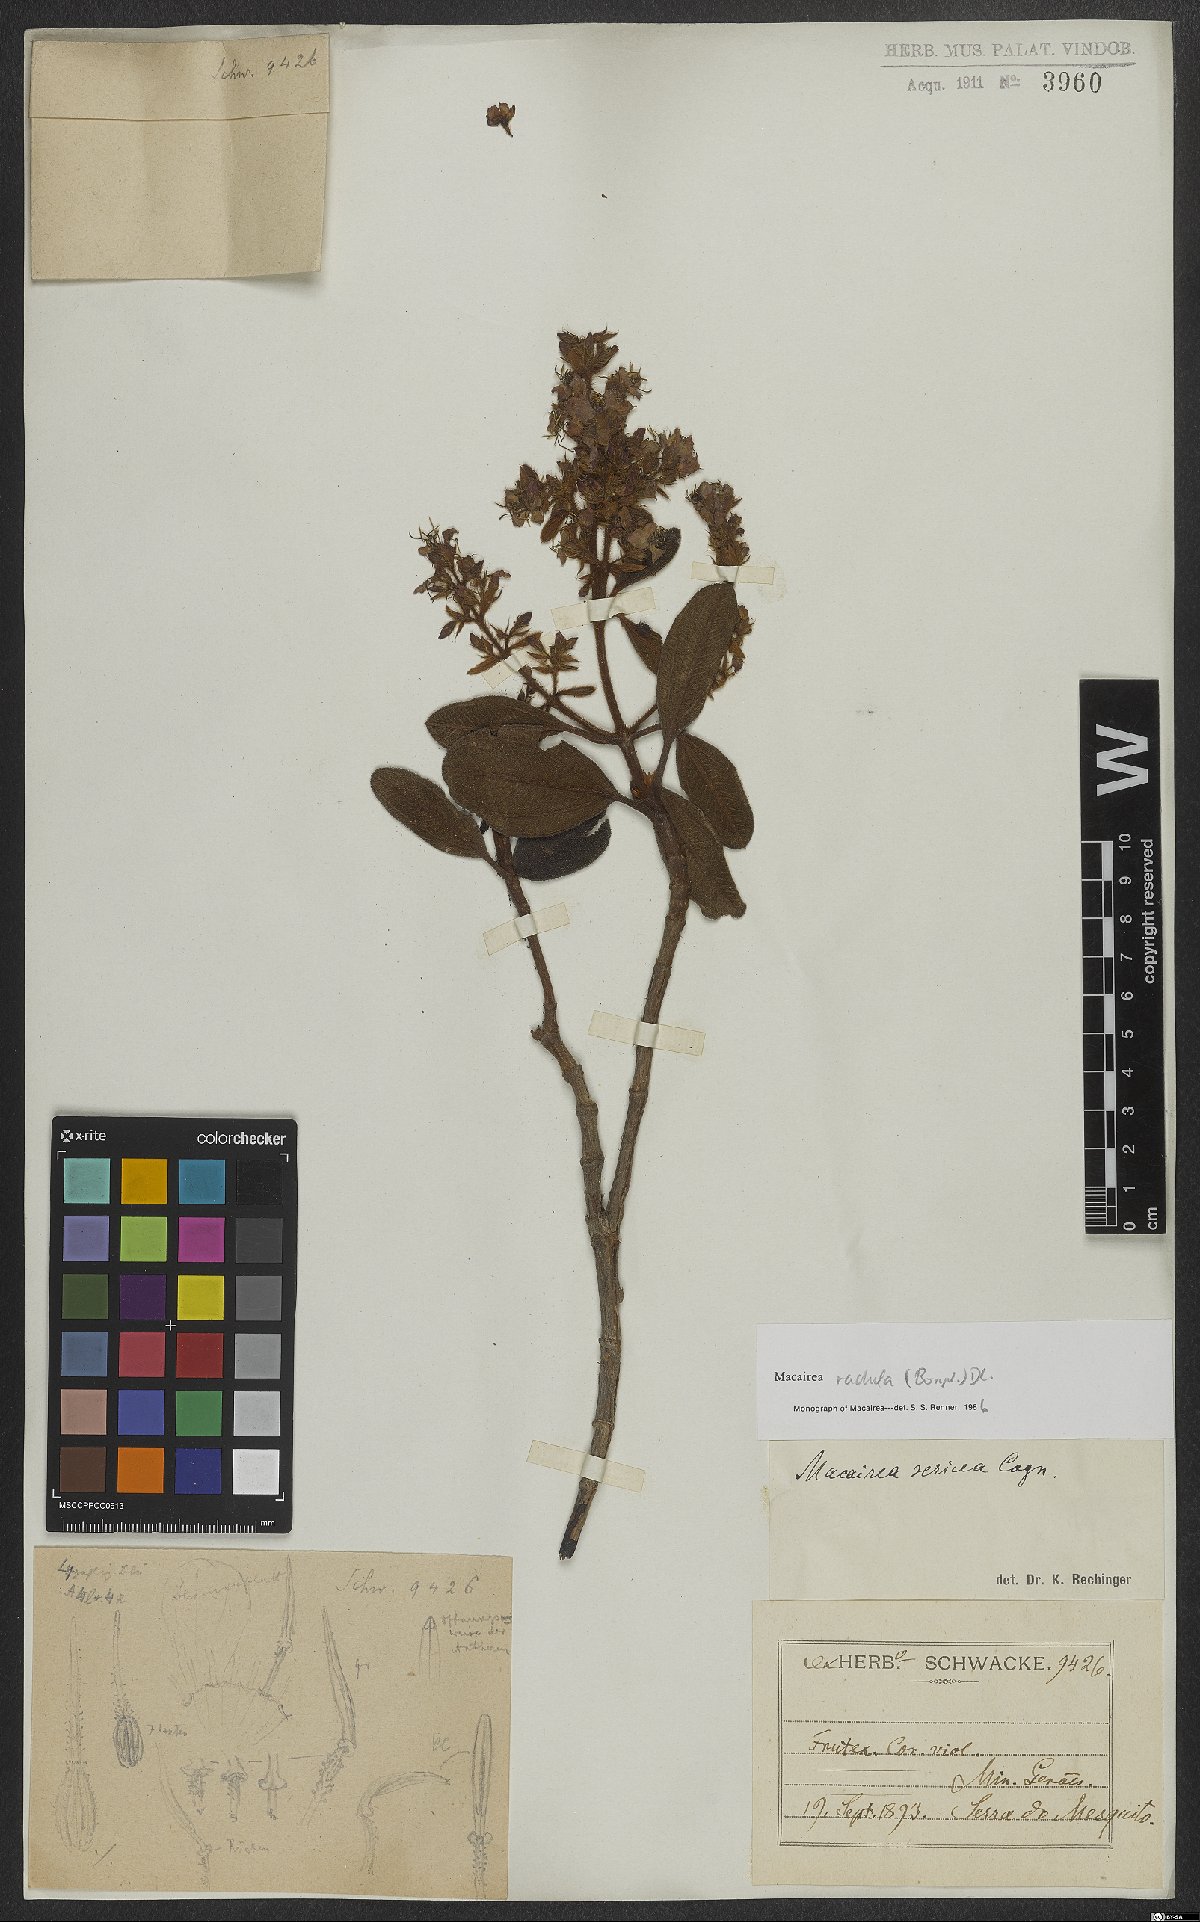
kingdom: Plantae
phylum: Tracheophyta
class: Magnoliopsida
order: Myrtales
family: Melastomataceae
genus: Macairea
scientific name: Macairea radula
